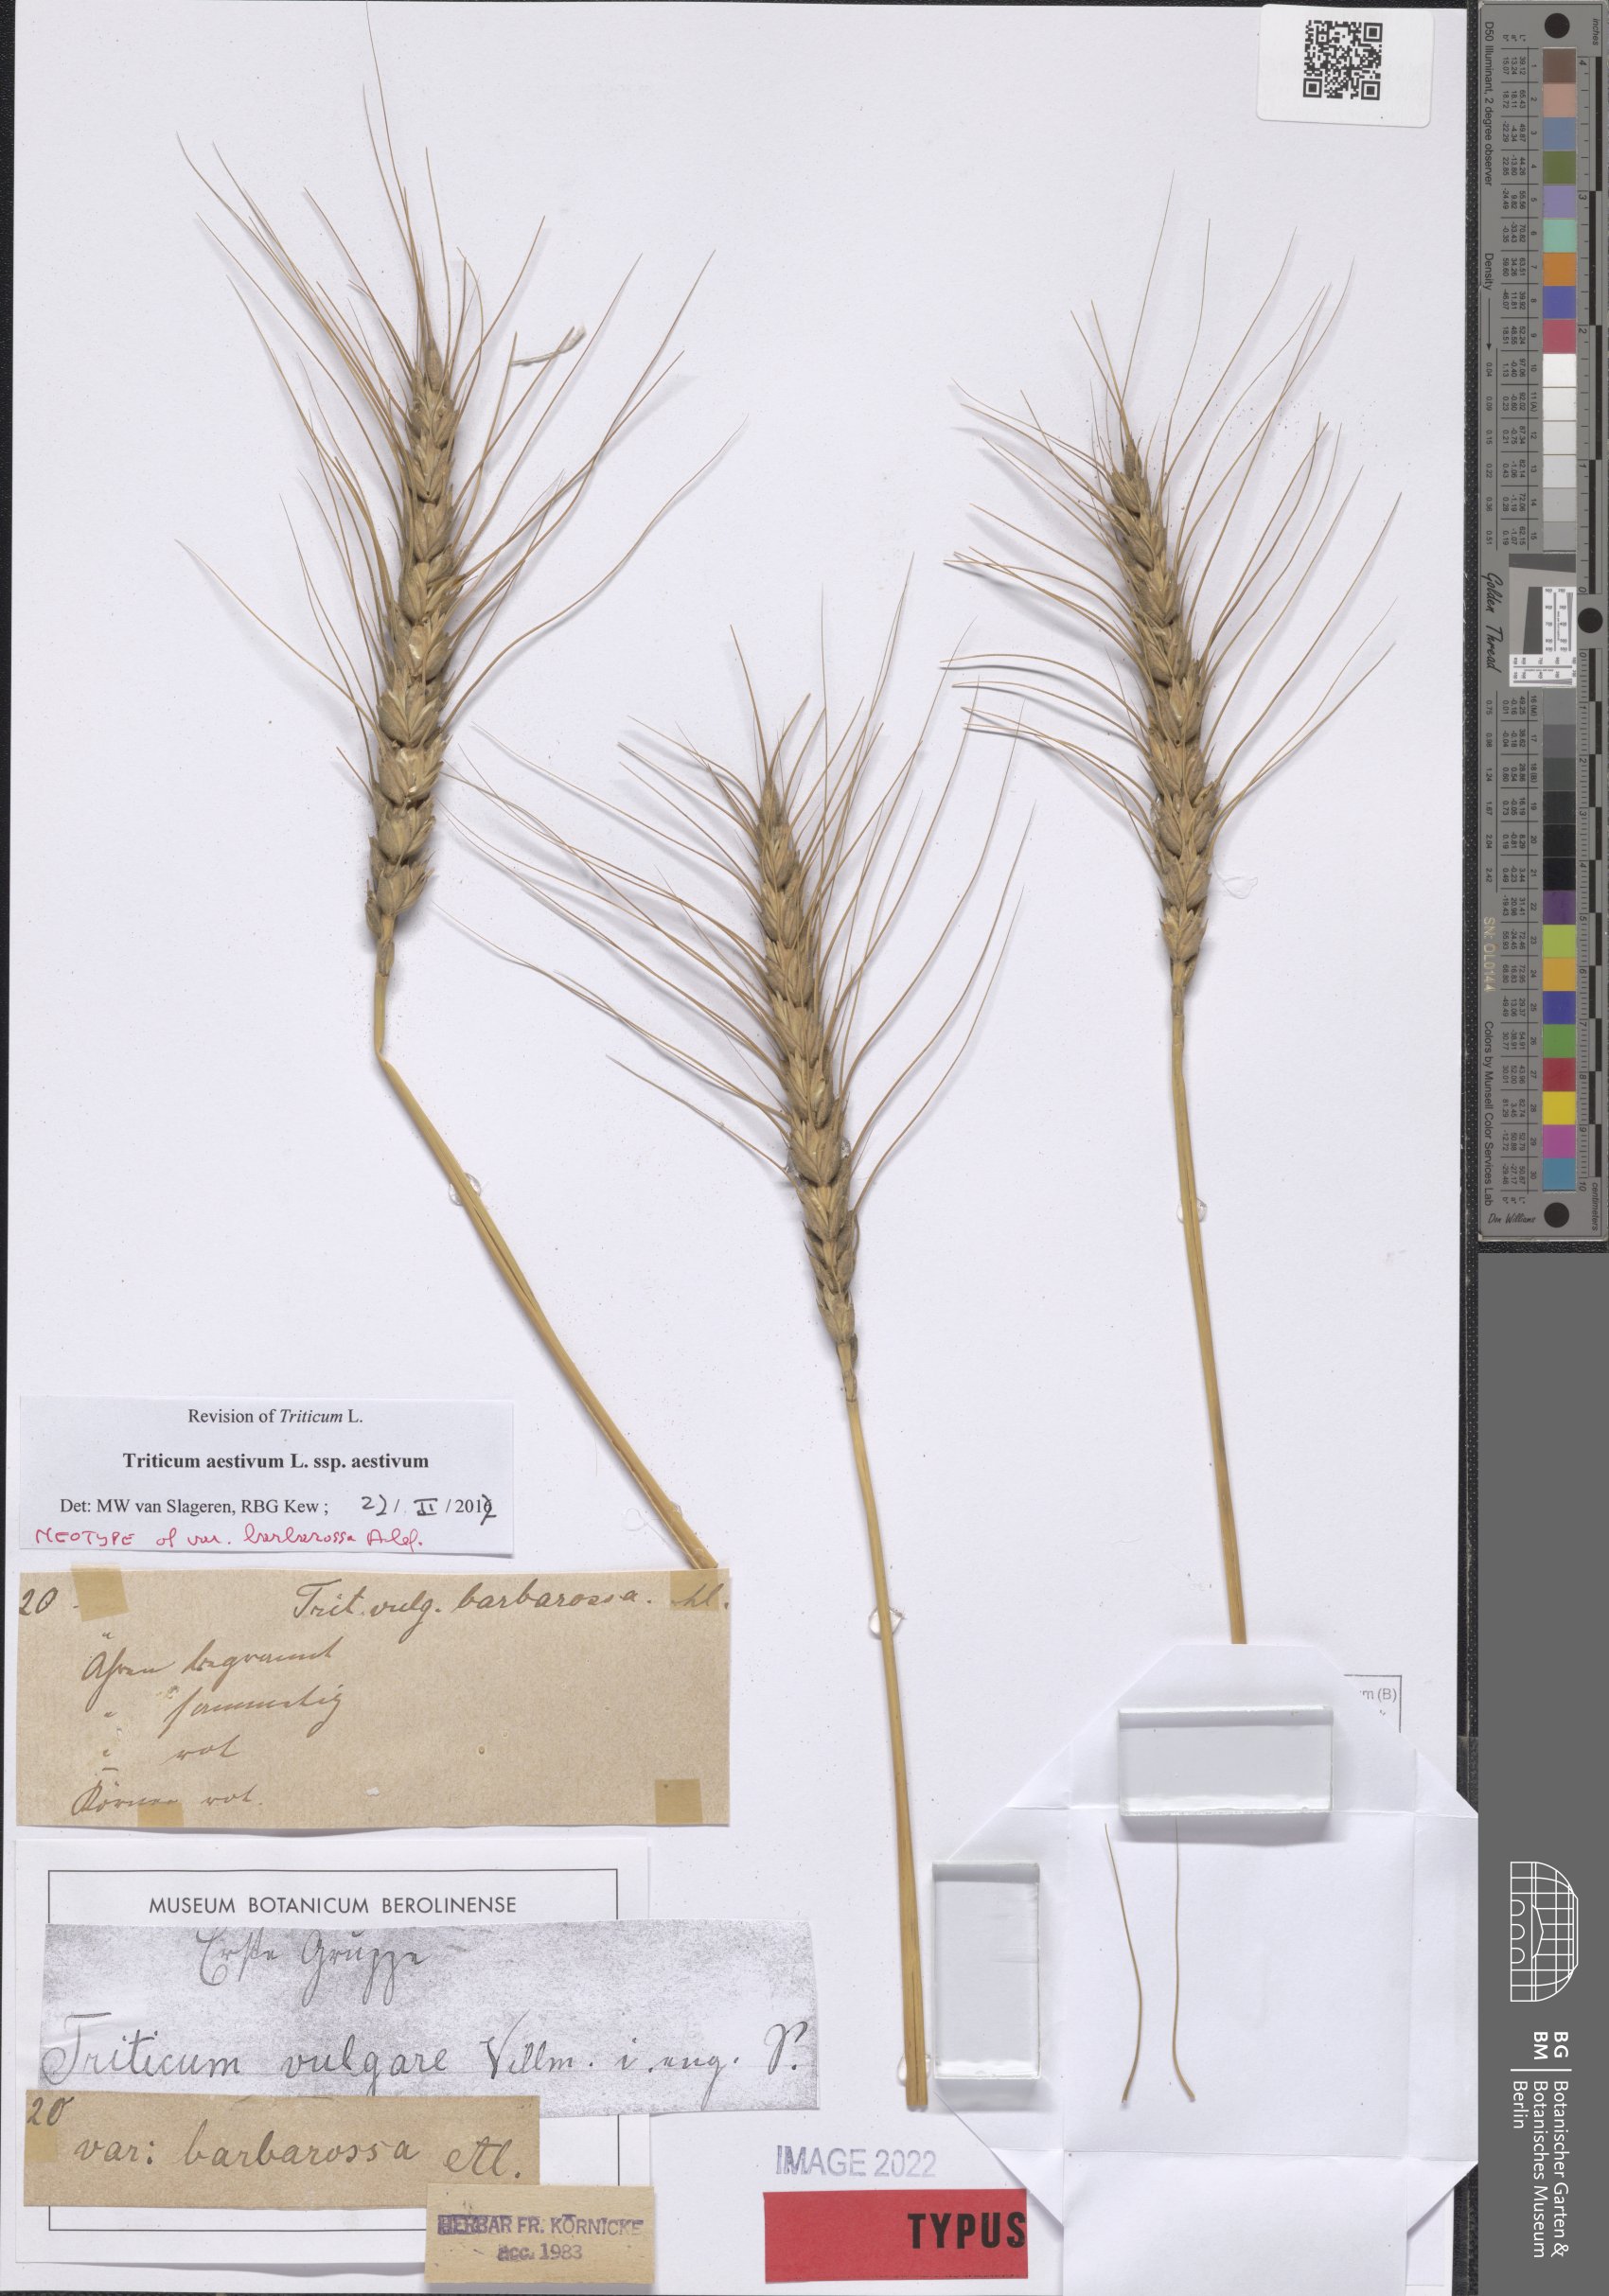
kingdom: Plantae
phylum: Tracheophyta
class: Liliopsida
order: Poales
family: Poaceae
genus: Triticum
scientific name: Triticum aestivum
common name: Common wheat
